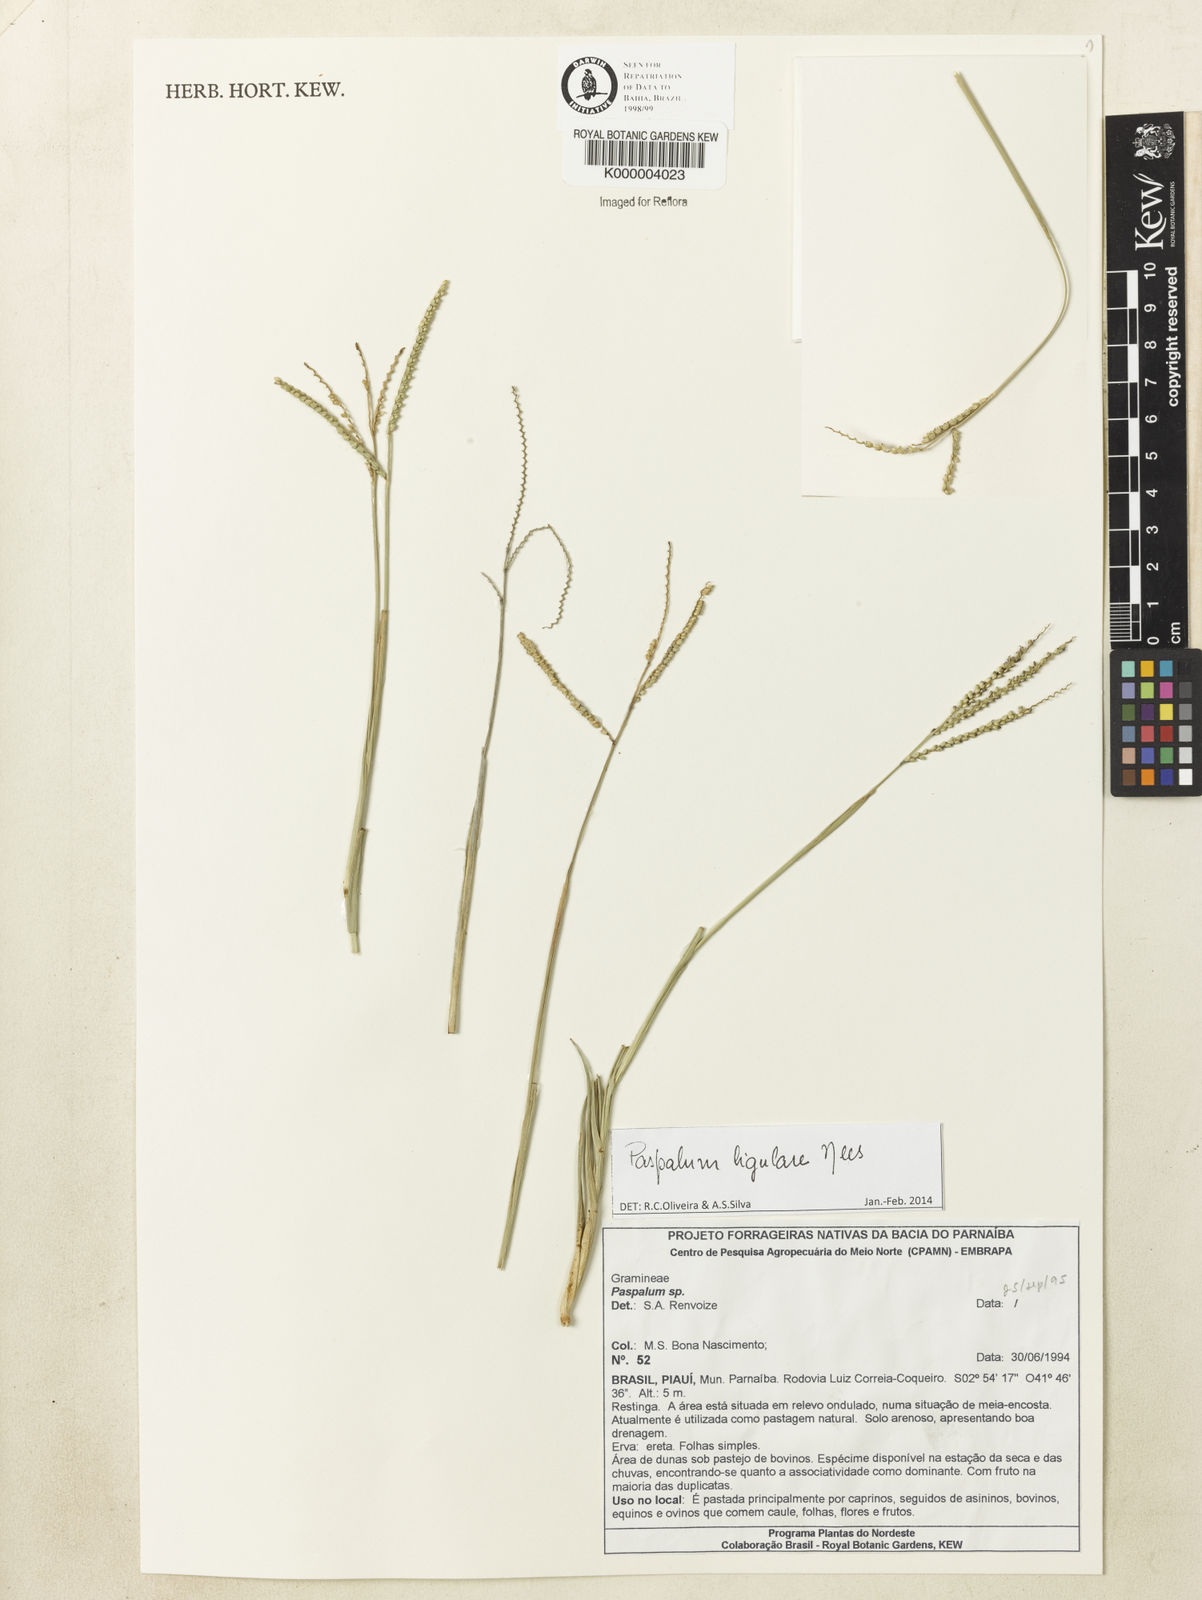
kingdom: Plantae
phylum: Tracheophyta
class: Liliopsida
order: Poales
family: Poaceae
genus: Paspalum
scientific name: Paspalum
